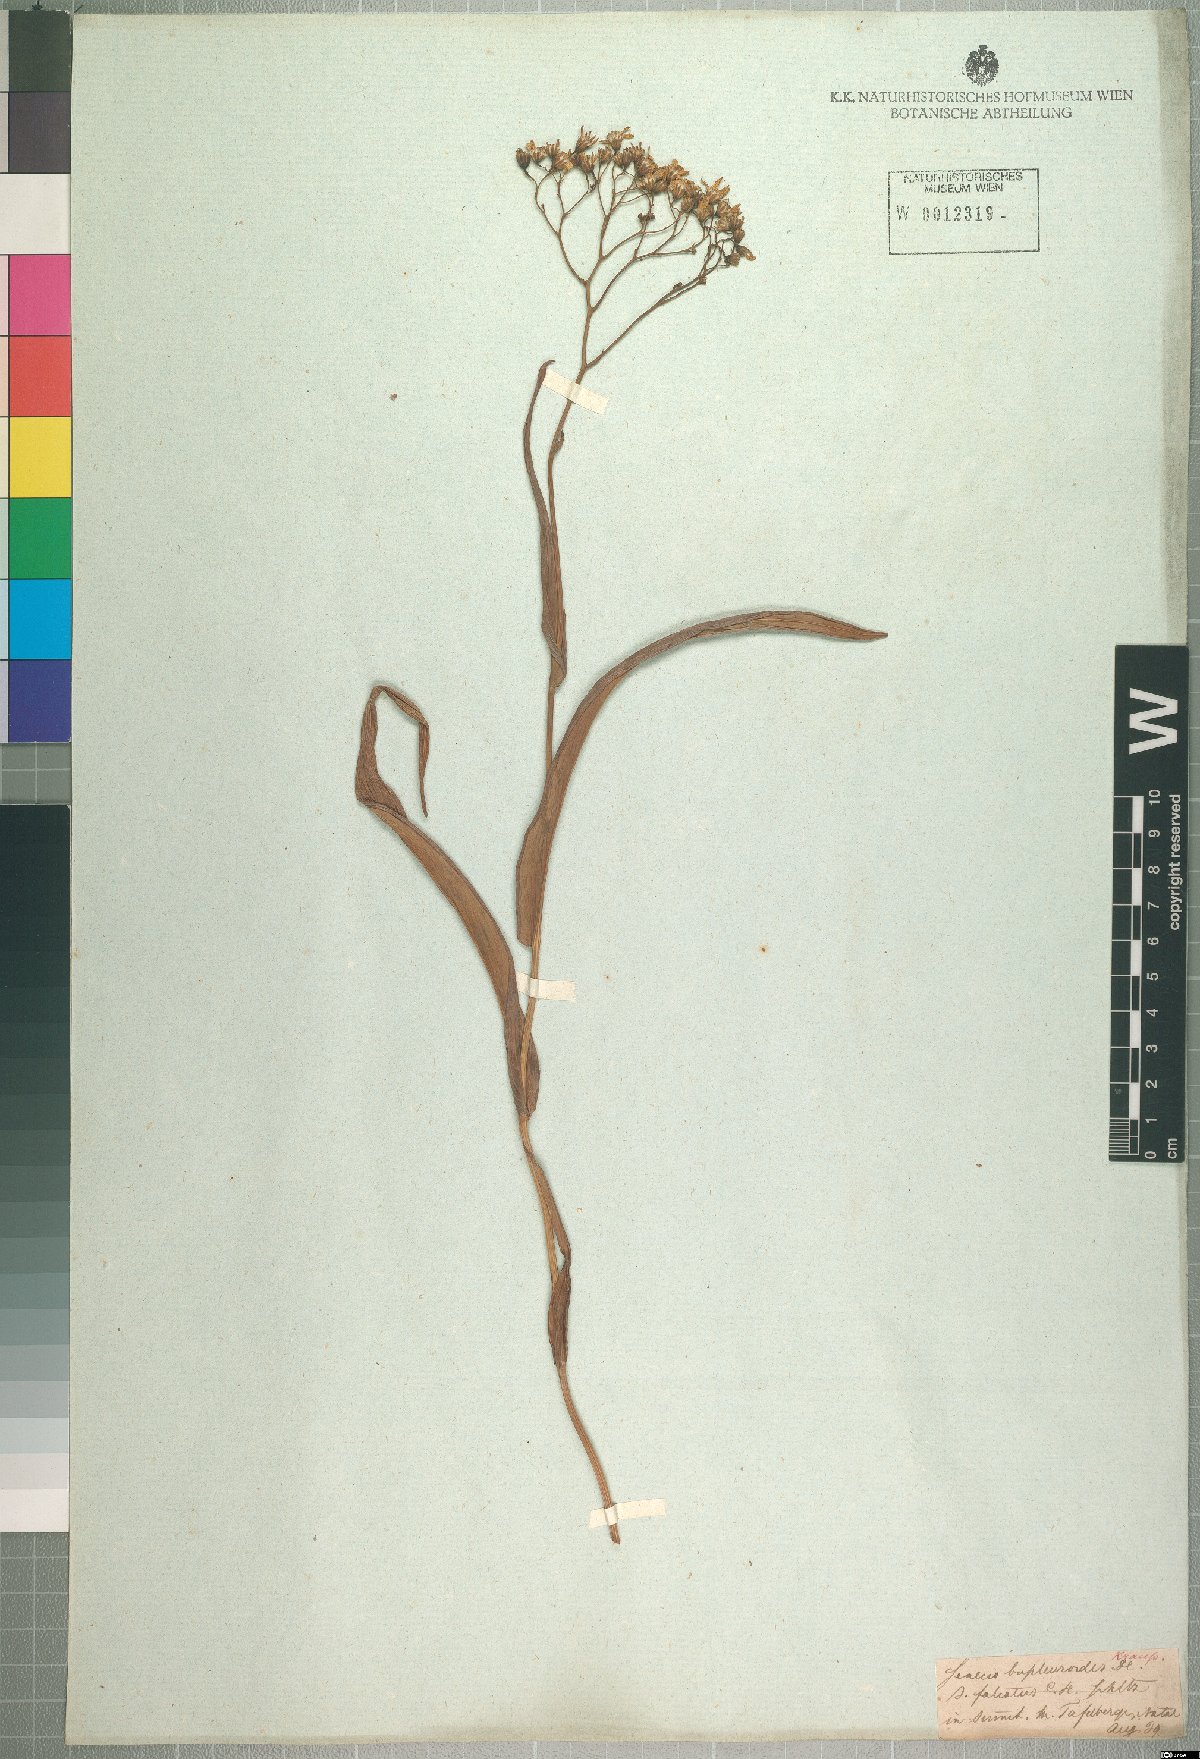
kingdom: Plantae
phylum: Tracheophyta
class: Magnoliopsida
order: Asterales
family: Asteraceae
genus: Senecio
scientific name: Senecio bupleuroides
